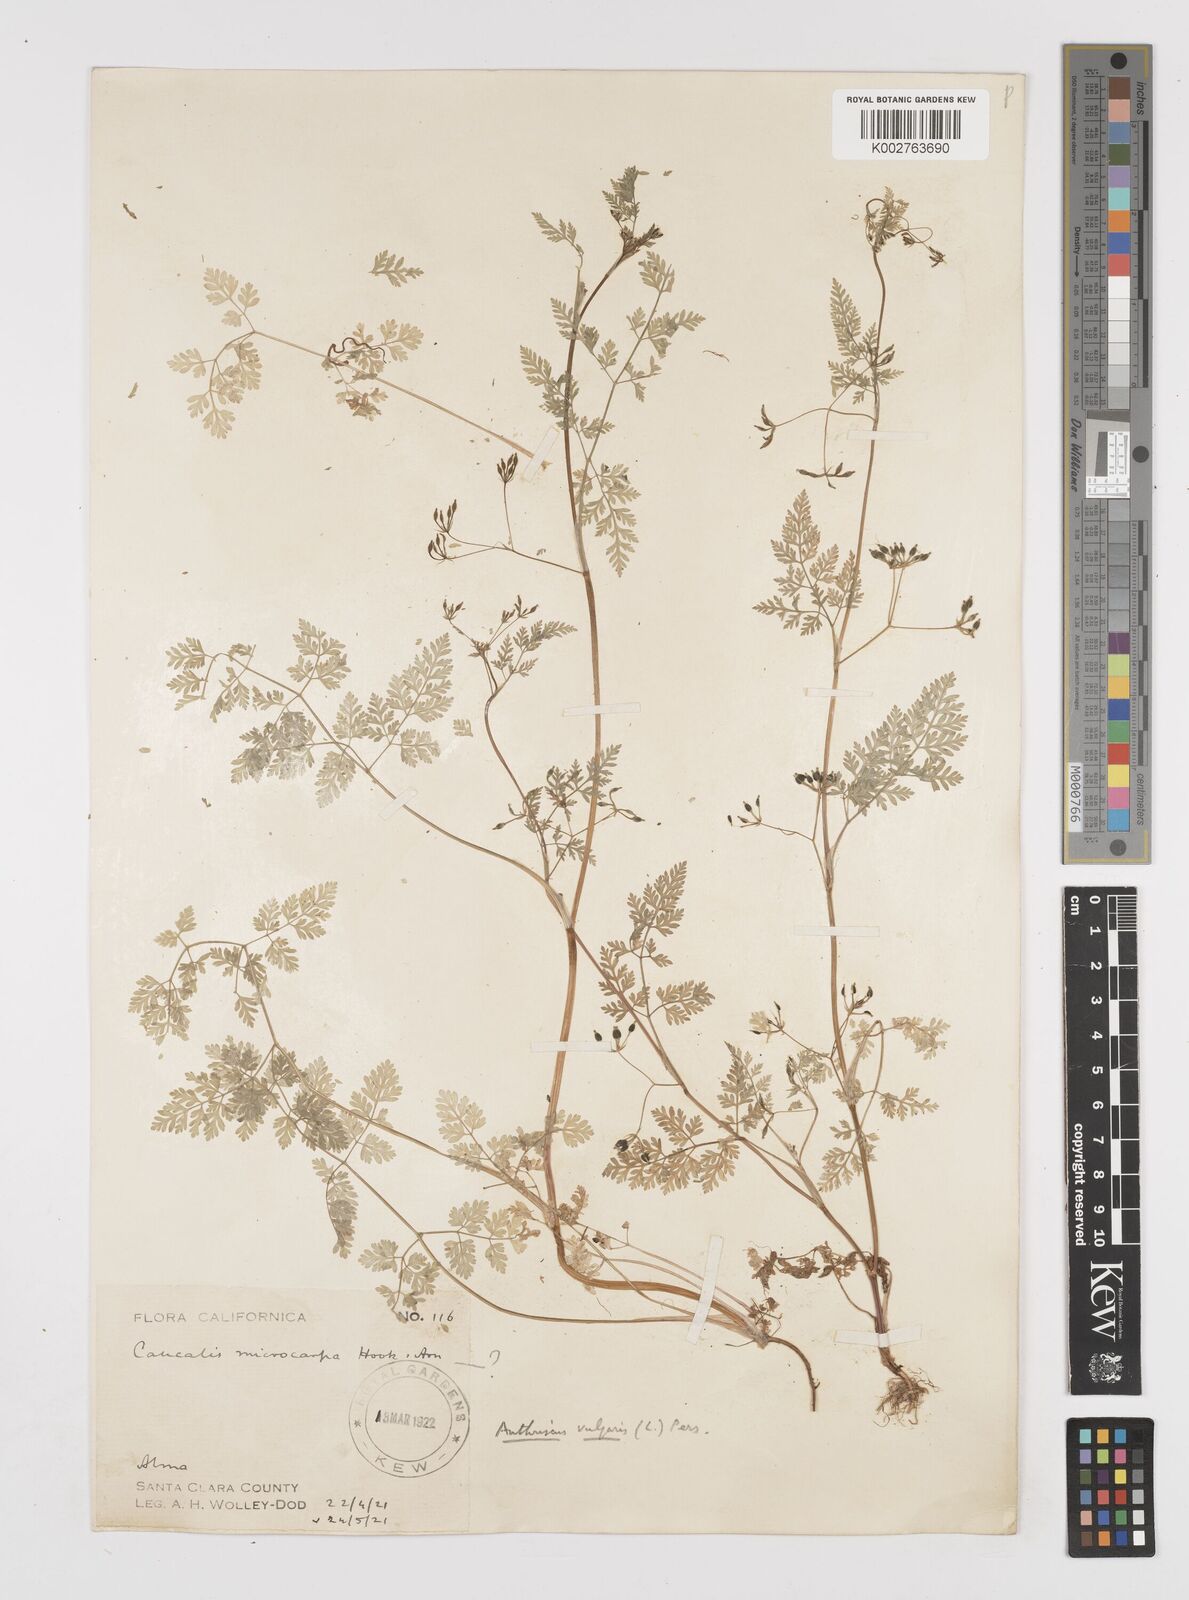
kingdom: Plantae
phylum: Tracheophyta
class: Magnoliopsida
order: Apiales
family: Apiaceae
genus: Anthriscus
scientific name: Anthriscus caucalis
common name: Bur chervil
